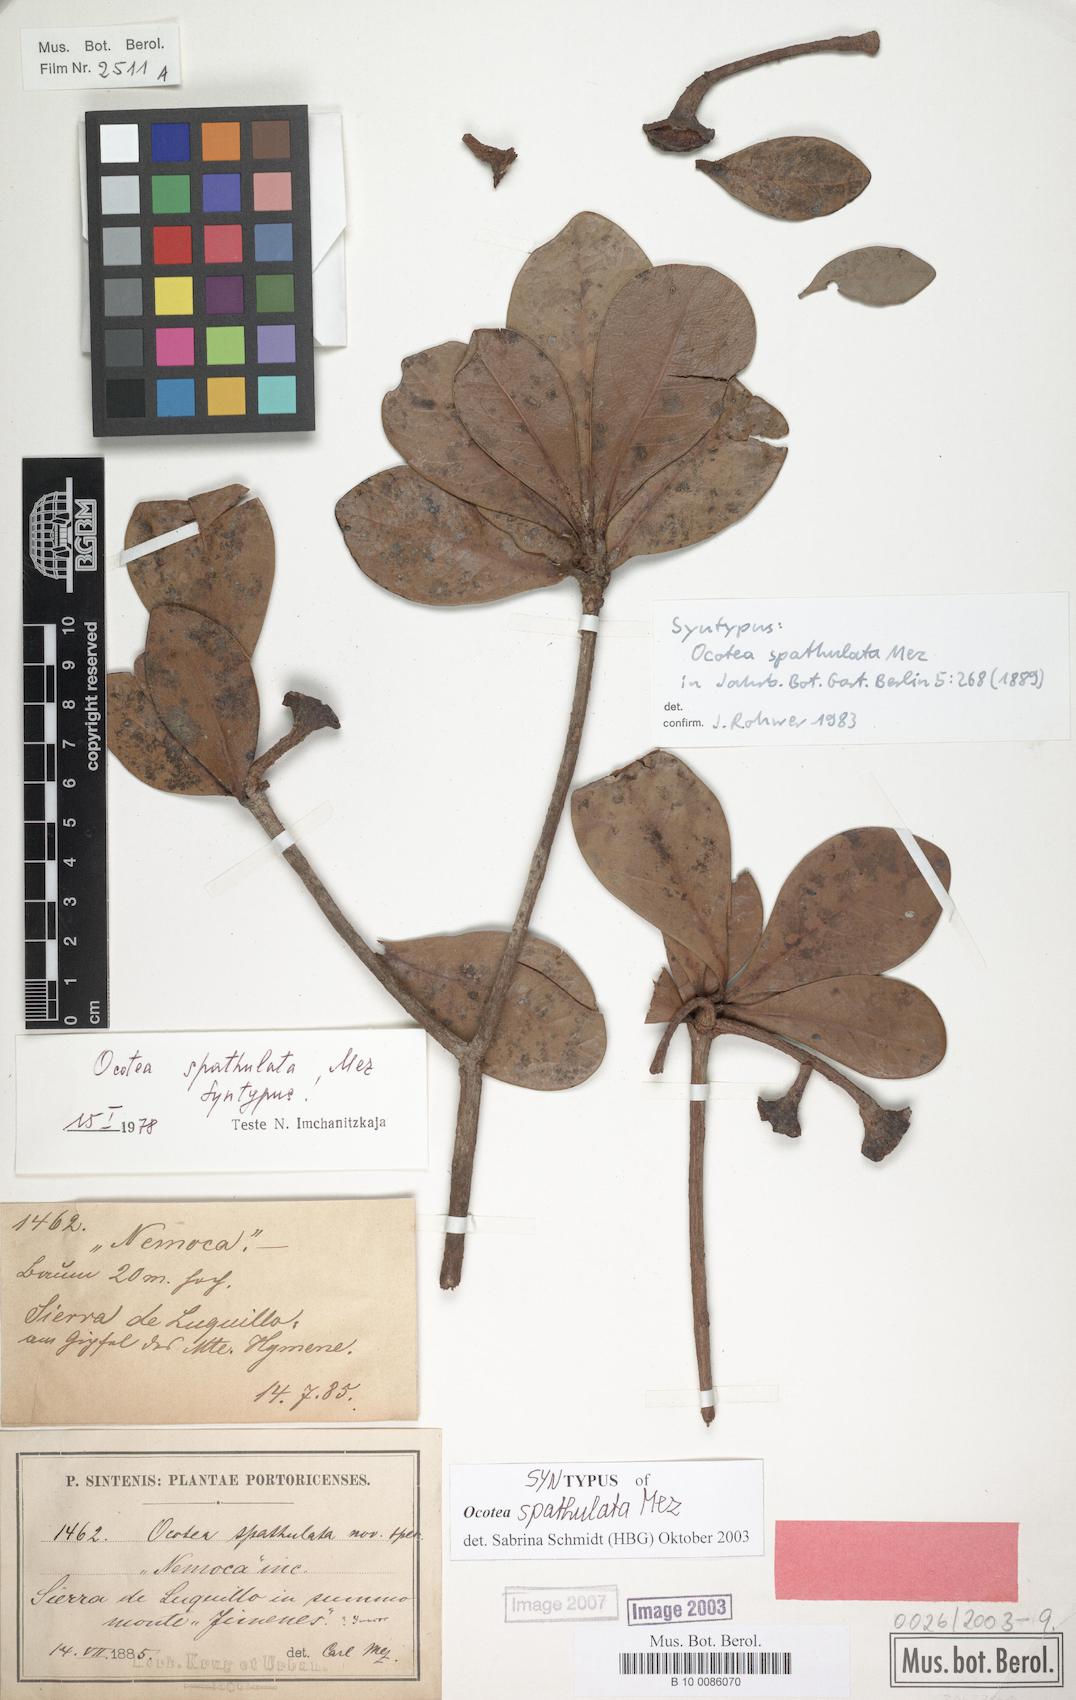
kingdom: Plantae
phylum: Tracheophyta
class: Magnoliopsida
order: Laurales
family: Lauraceae
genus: Ocotea
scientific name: Ocotea spathulata
